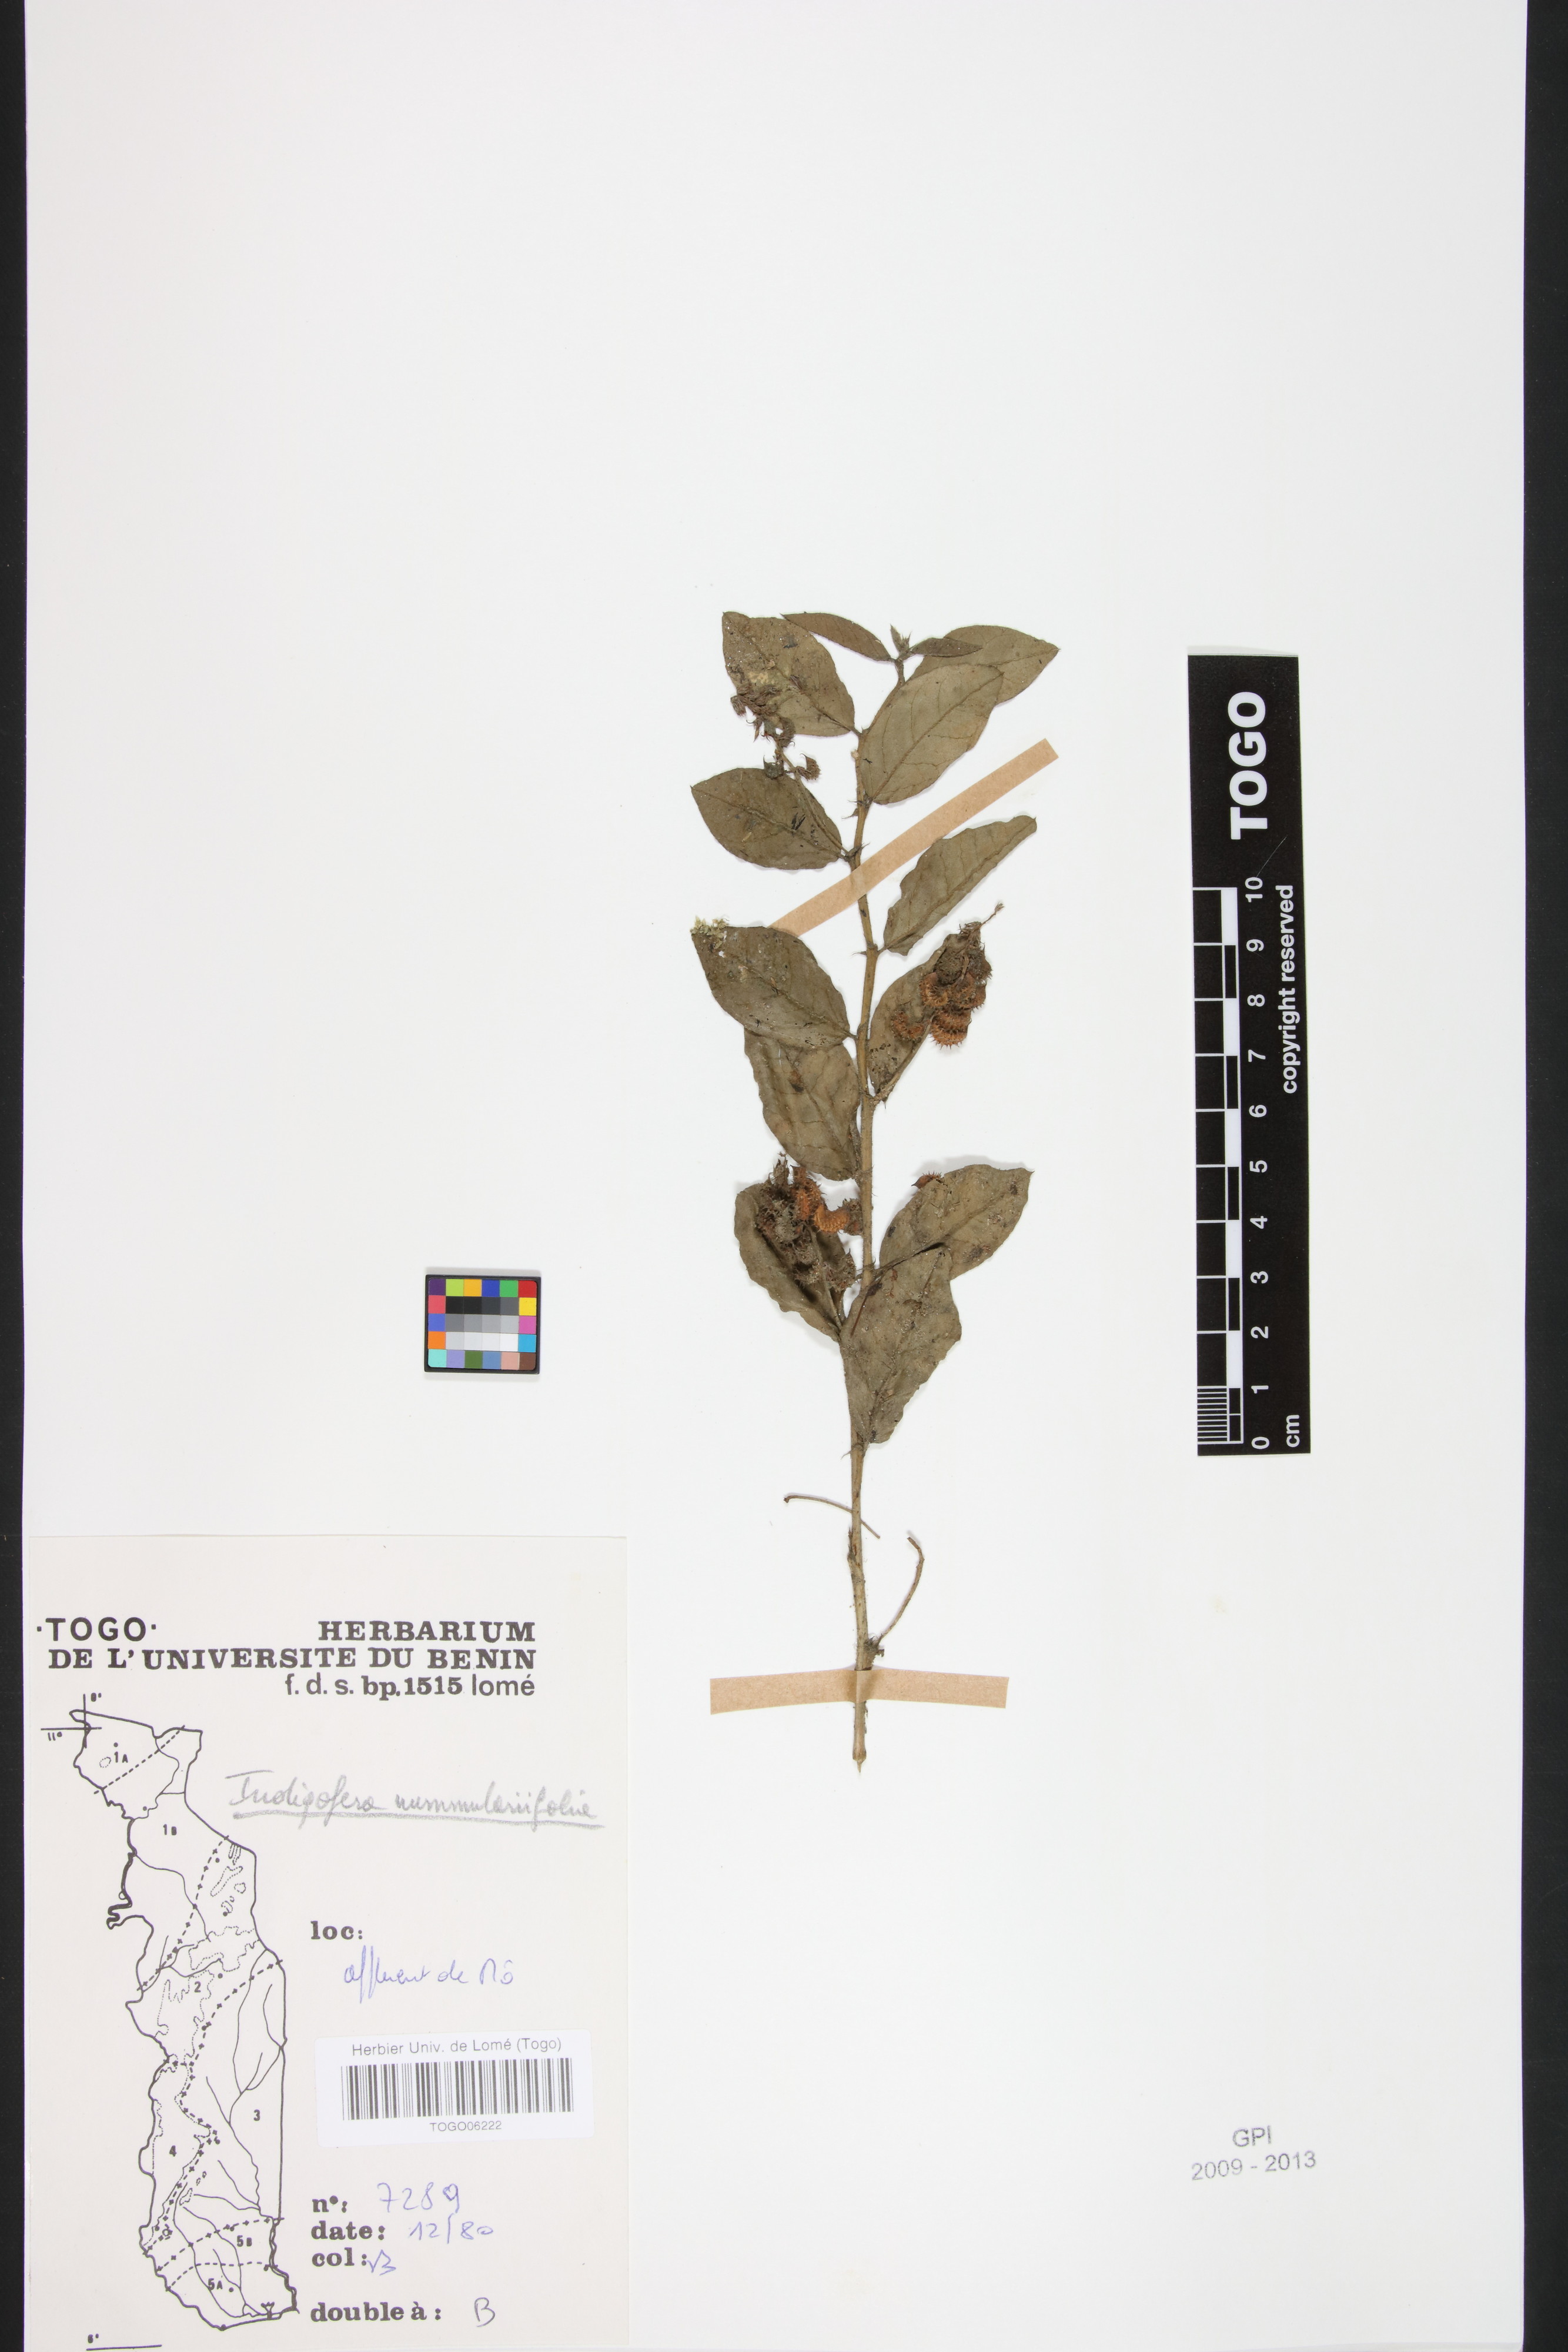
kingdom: Plantae
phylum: Tracheophyta
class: Magnoliopsida
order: Fabales
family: Fabaceae
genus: Indigofera
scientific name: Indigofera nummulariifolia
